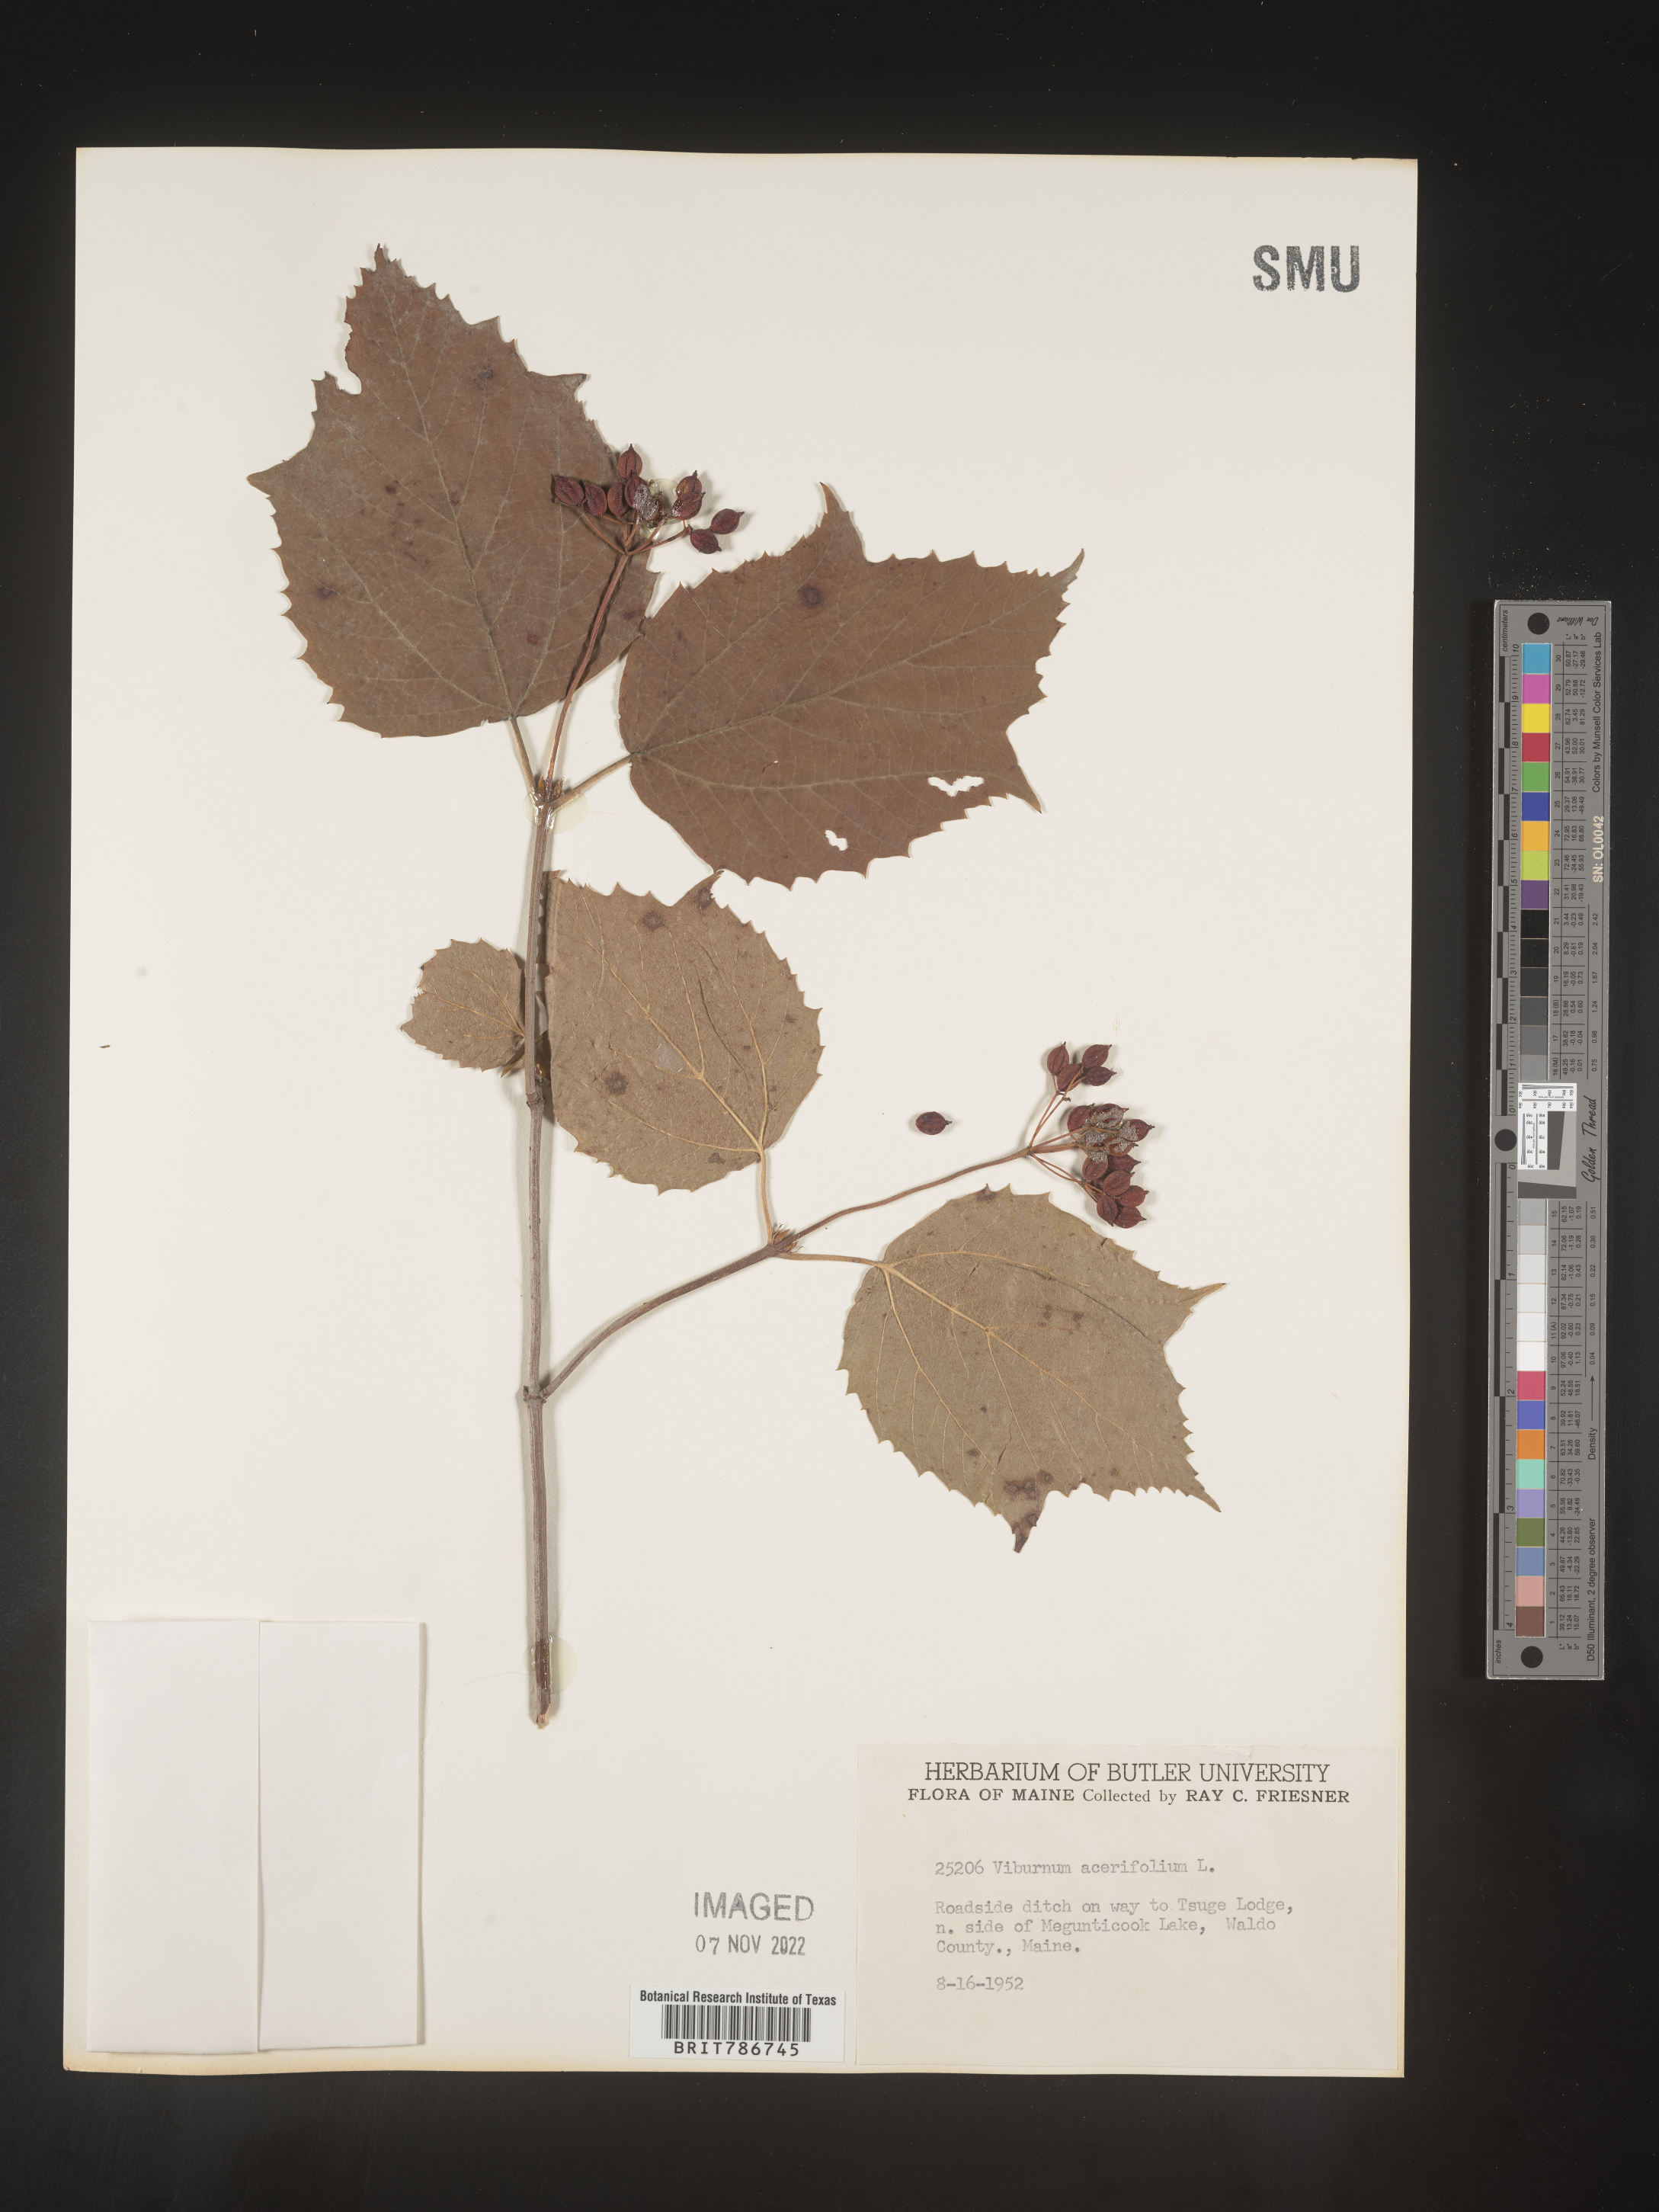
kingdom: Plantae
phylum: Tracheophyta
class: Magnoliopsida
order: Dipsacales
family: Viburnaceae
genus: Viburnum
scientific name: Viburnum acerifolium
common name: Dockmackie
